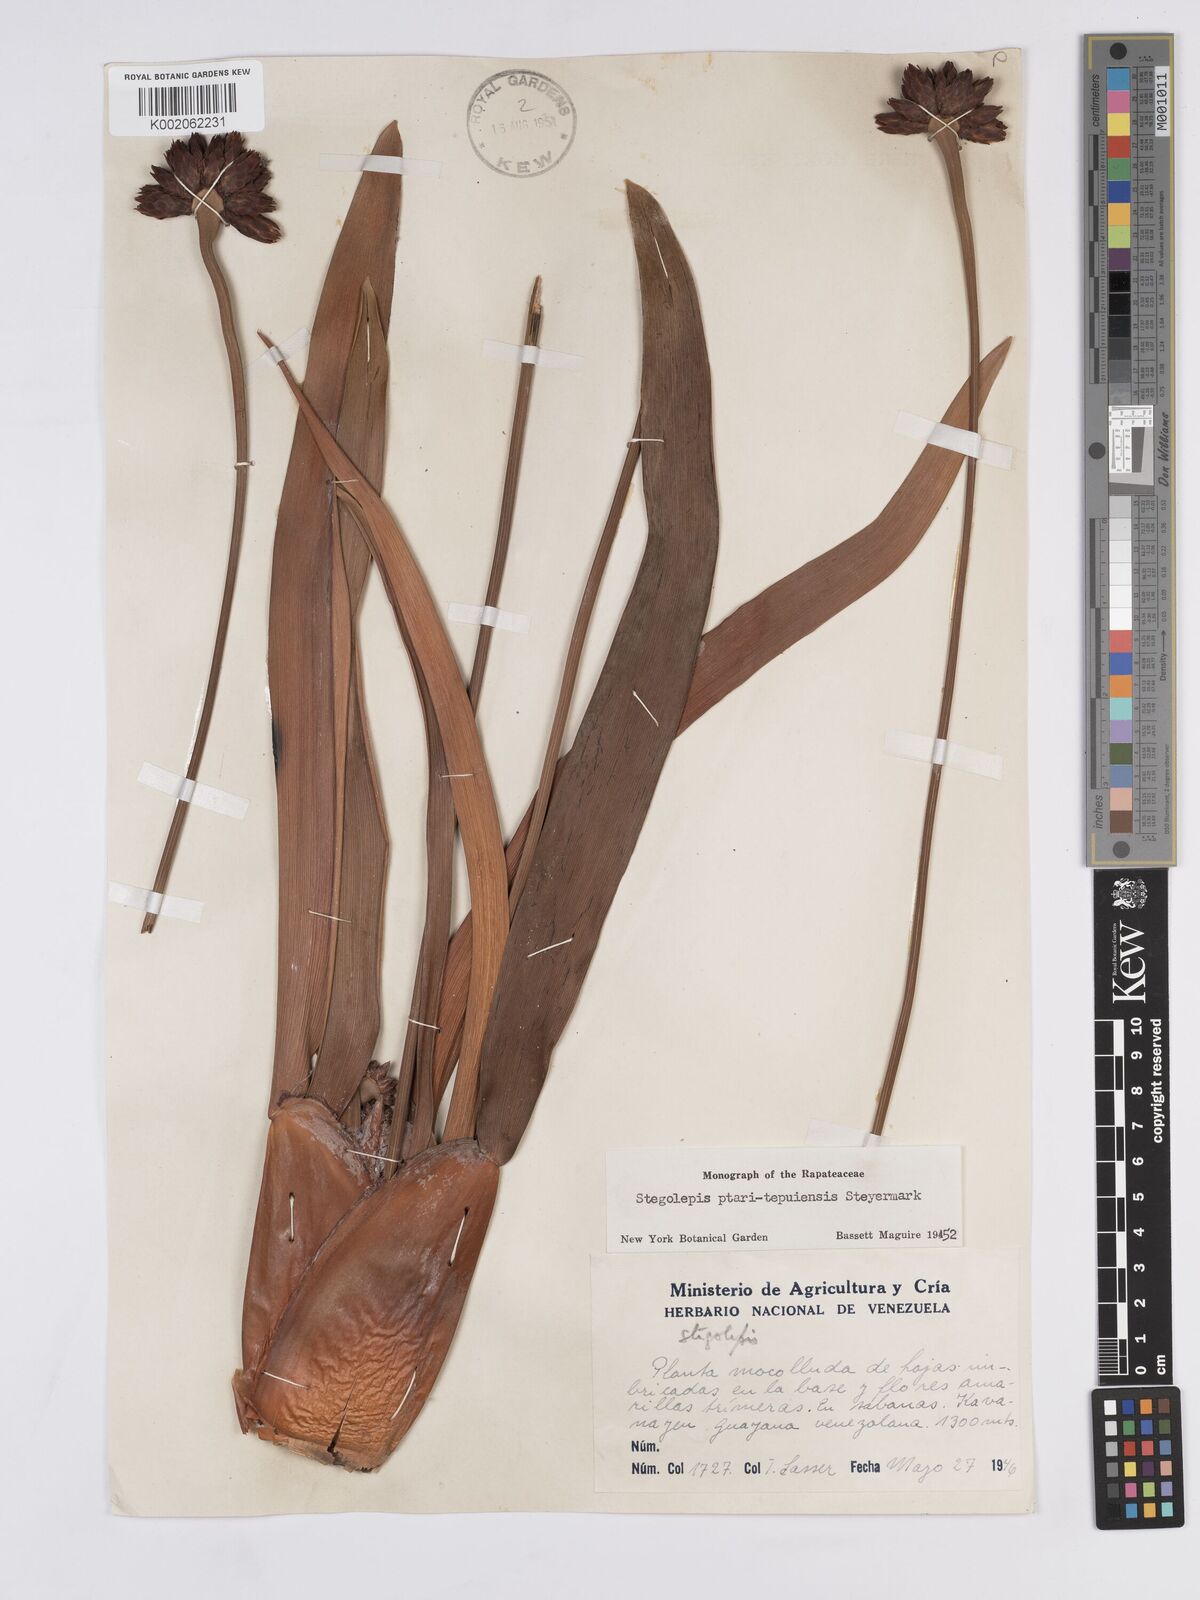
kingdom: Plantae
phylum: Tracheophyta
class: Liliopsida
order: Poales
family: Rapateaceae
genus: Stegolepis
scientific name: Stegolepis ptaritepuiensis
